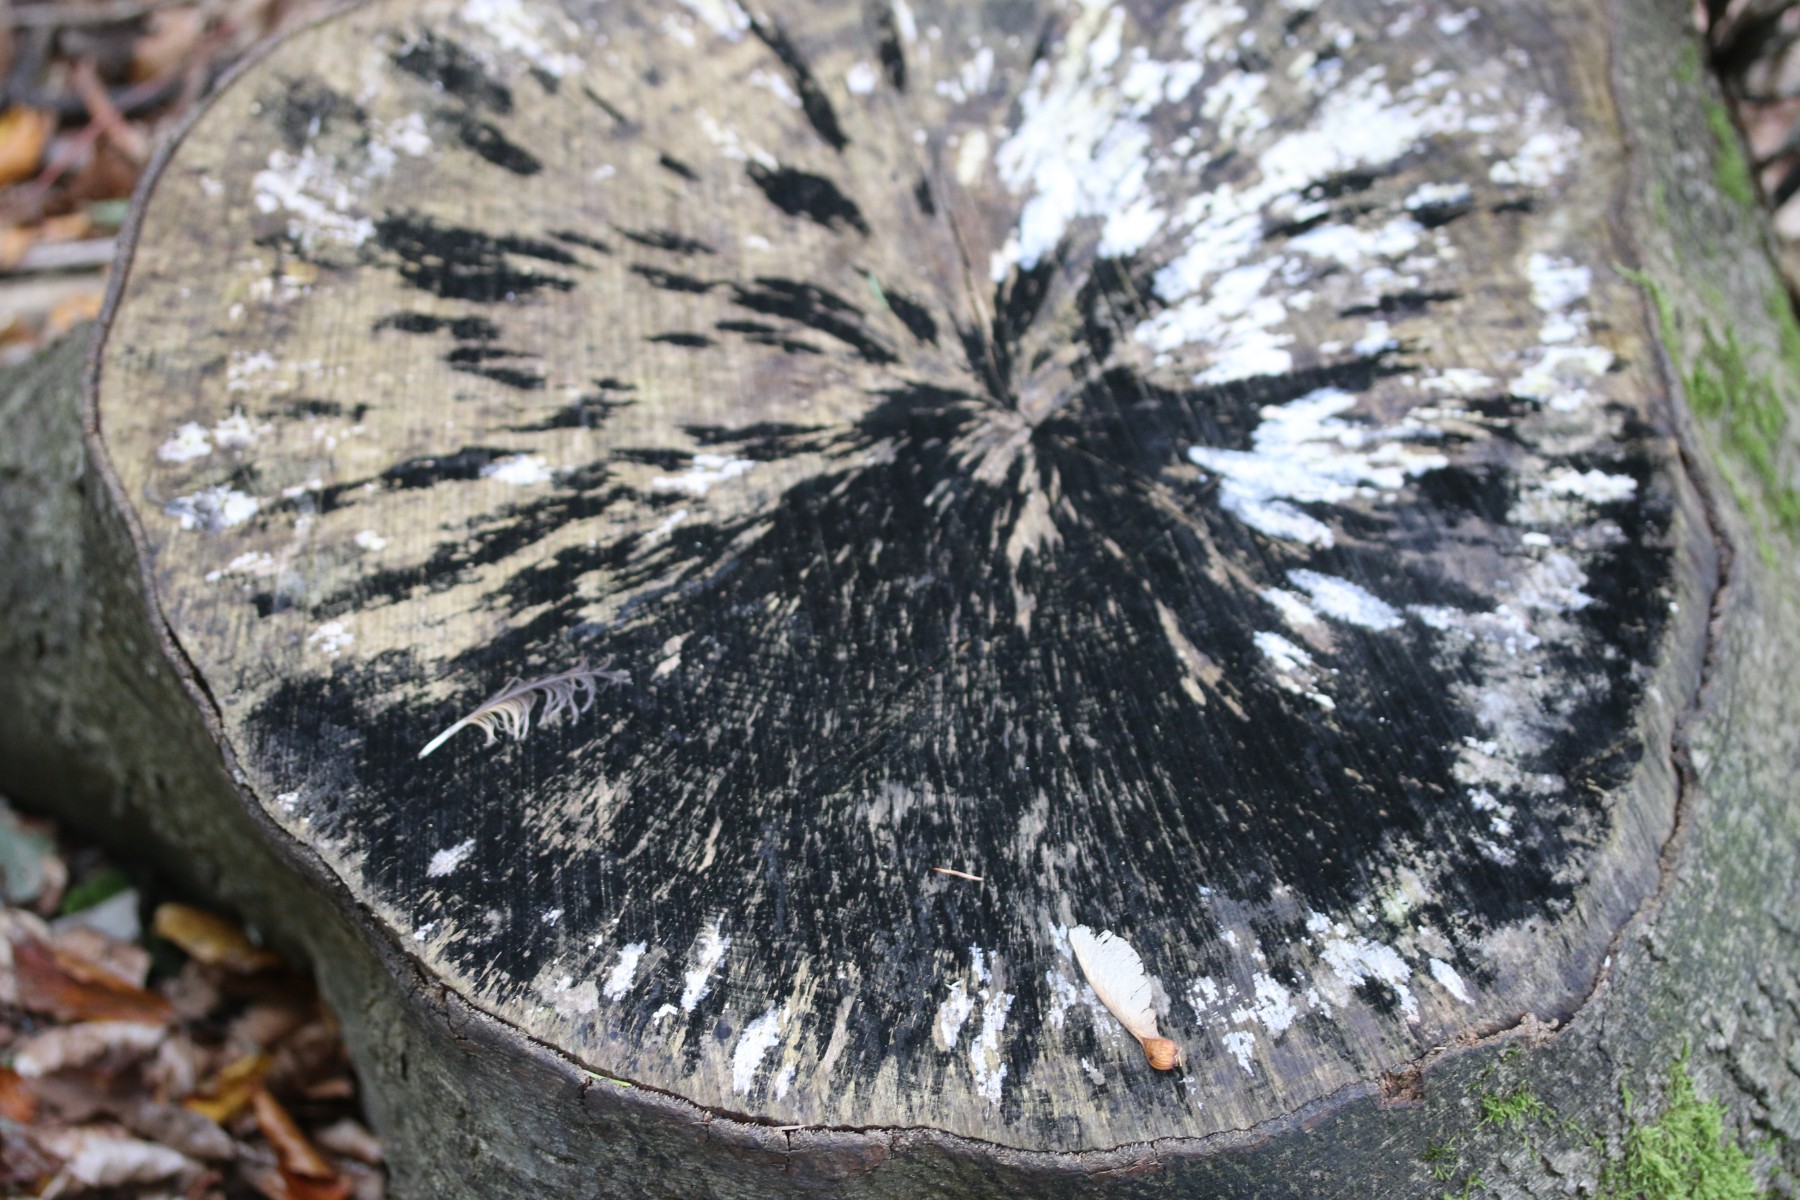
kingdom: Fungi
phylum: Ascomycota
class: Leotiomycetes
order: Helotiales
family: Helotiaceae
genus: Bispora
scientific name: Bispora pallescens
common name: måtte-snitskive
